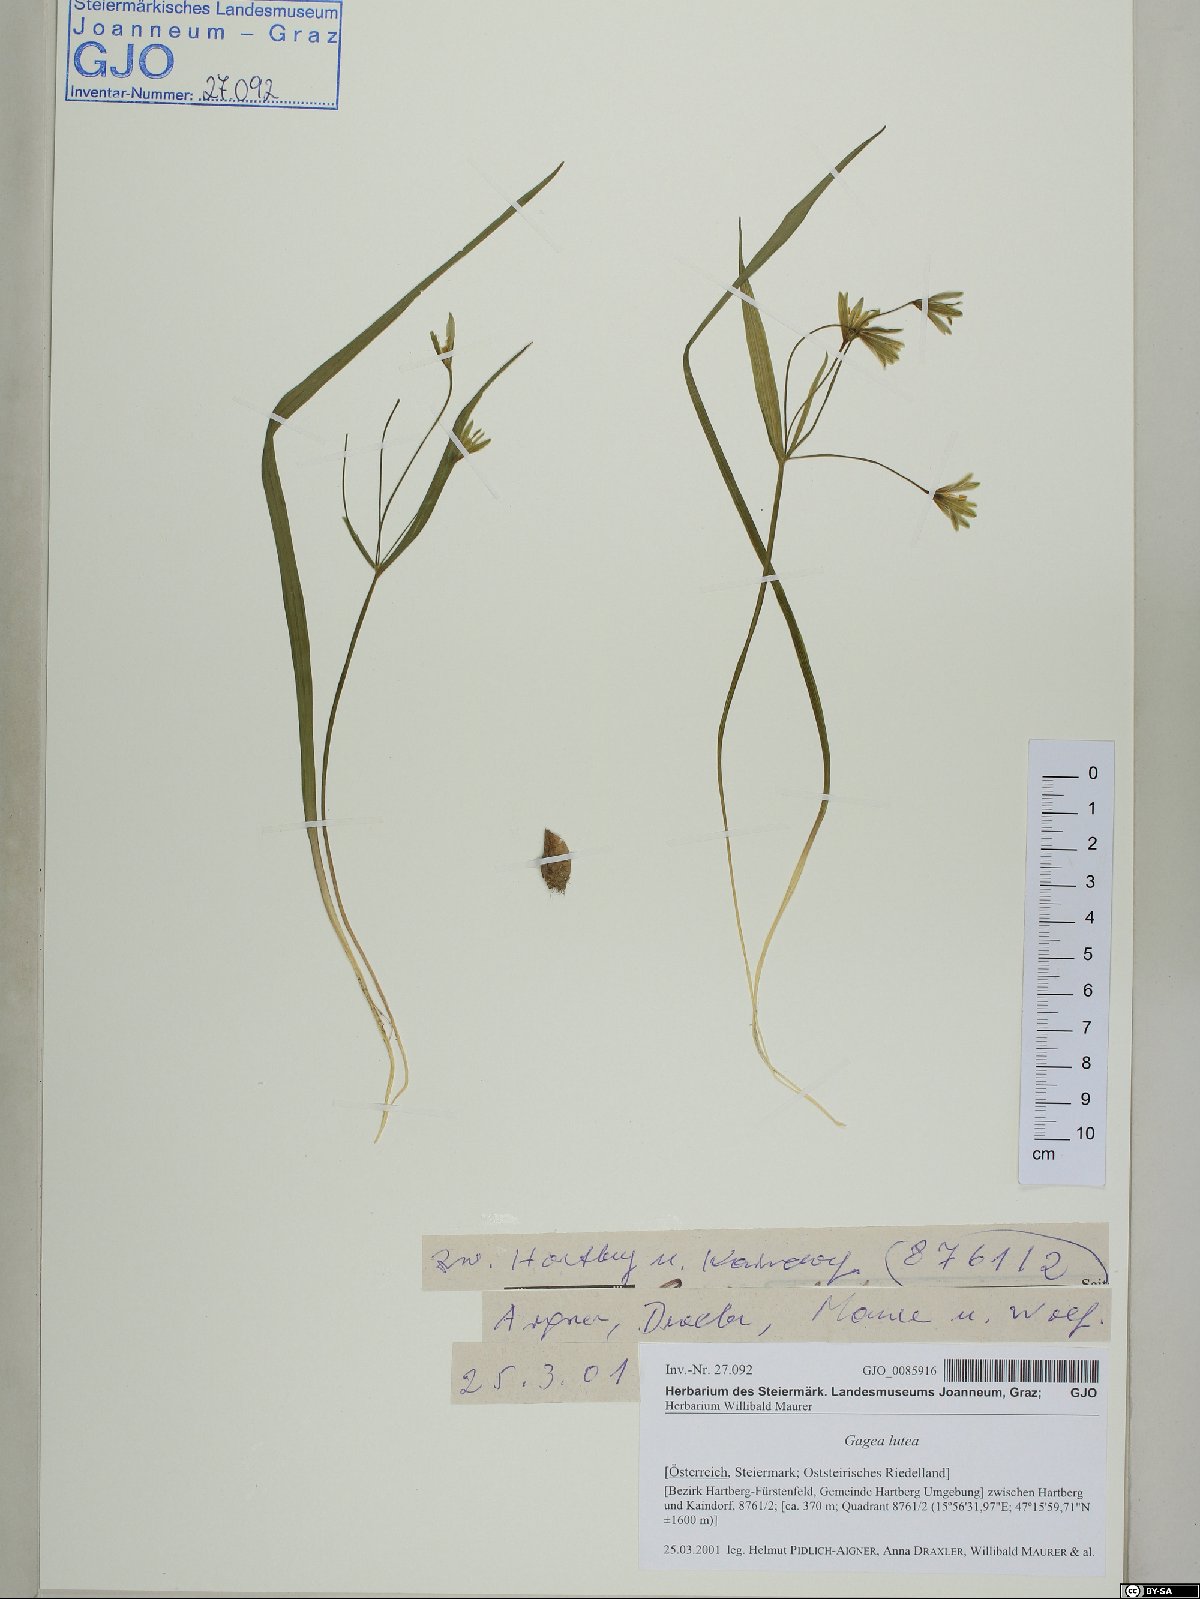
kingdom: Plantae
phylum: Tracheophyta
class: Liliopsida
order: Liliales
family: Liliaceae
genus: Gagea
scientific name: Gagea lutea
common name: Yellow star-of-bethlehem
